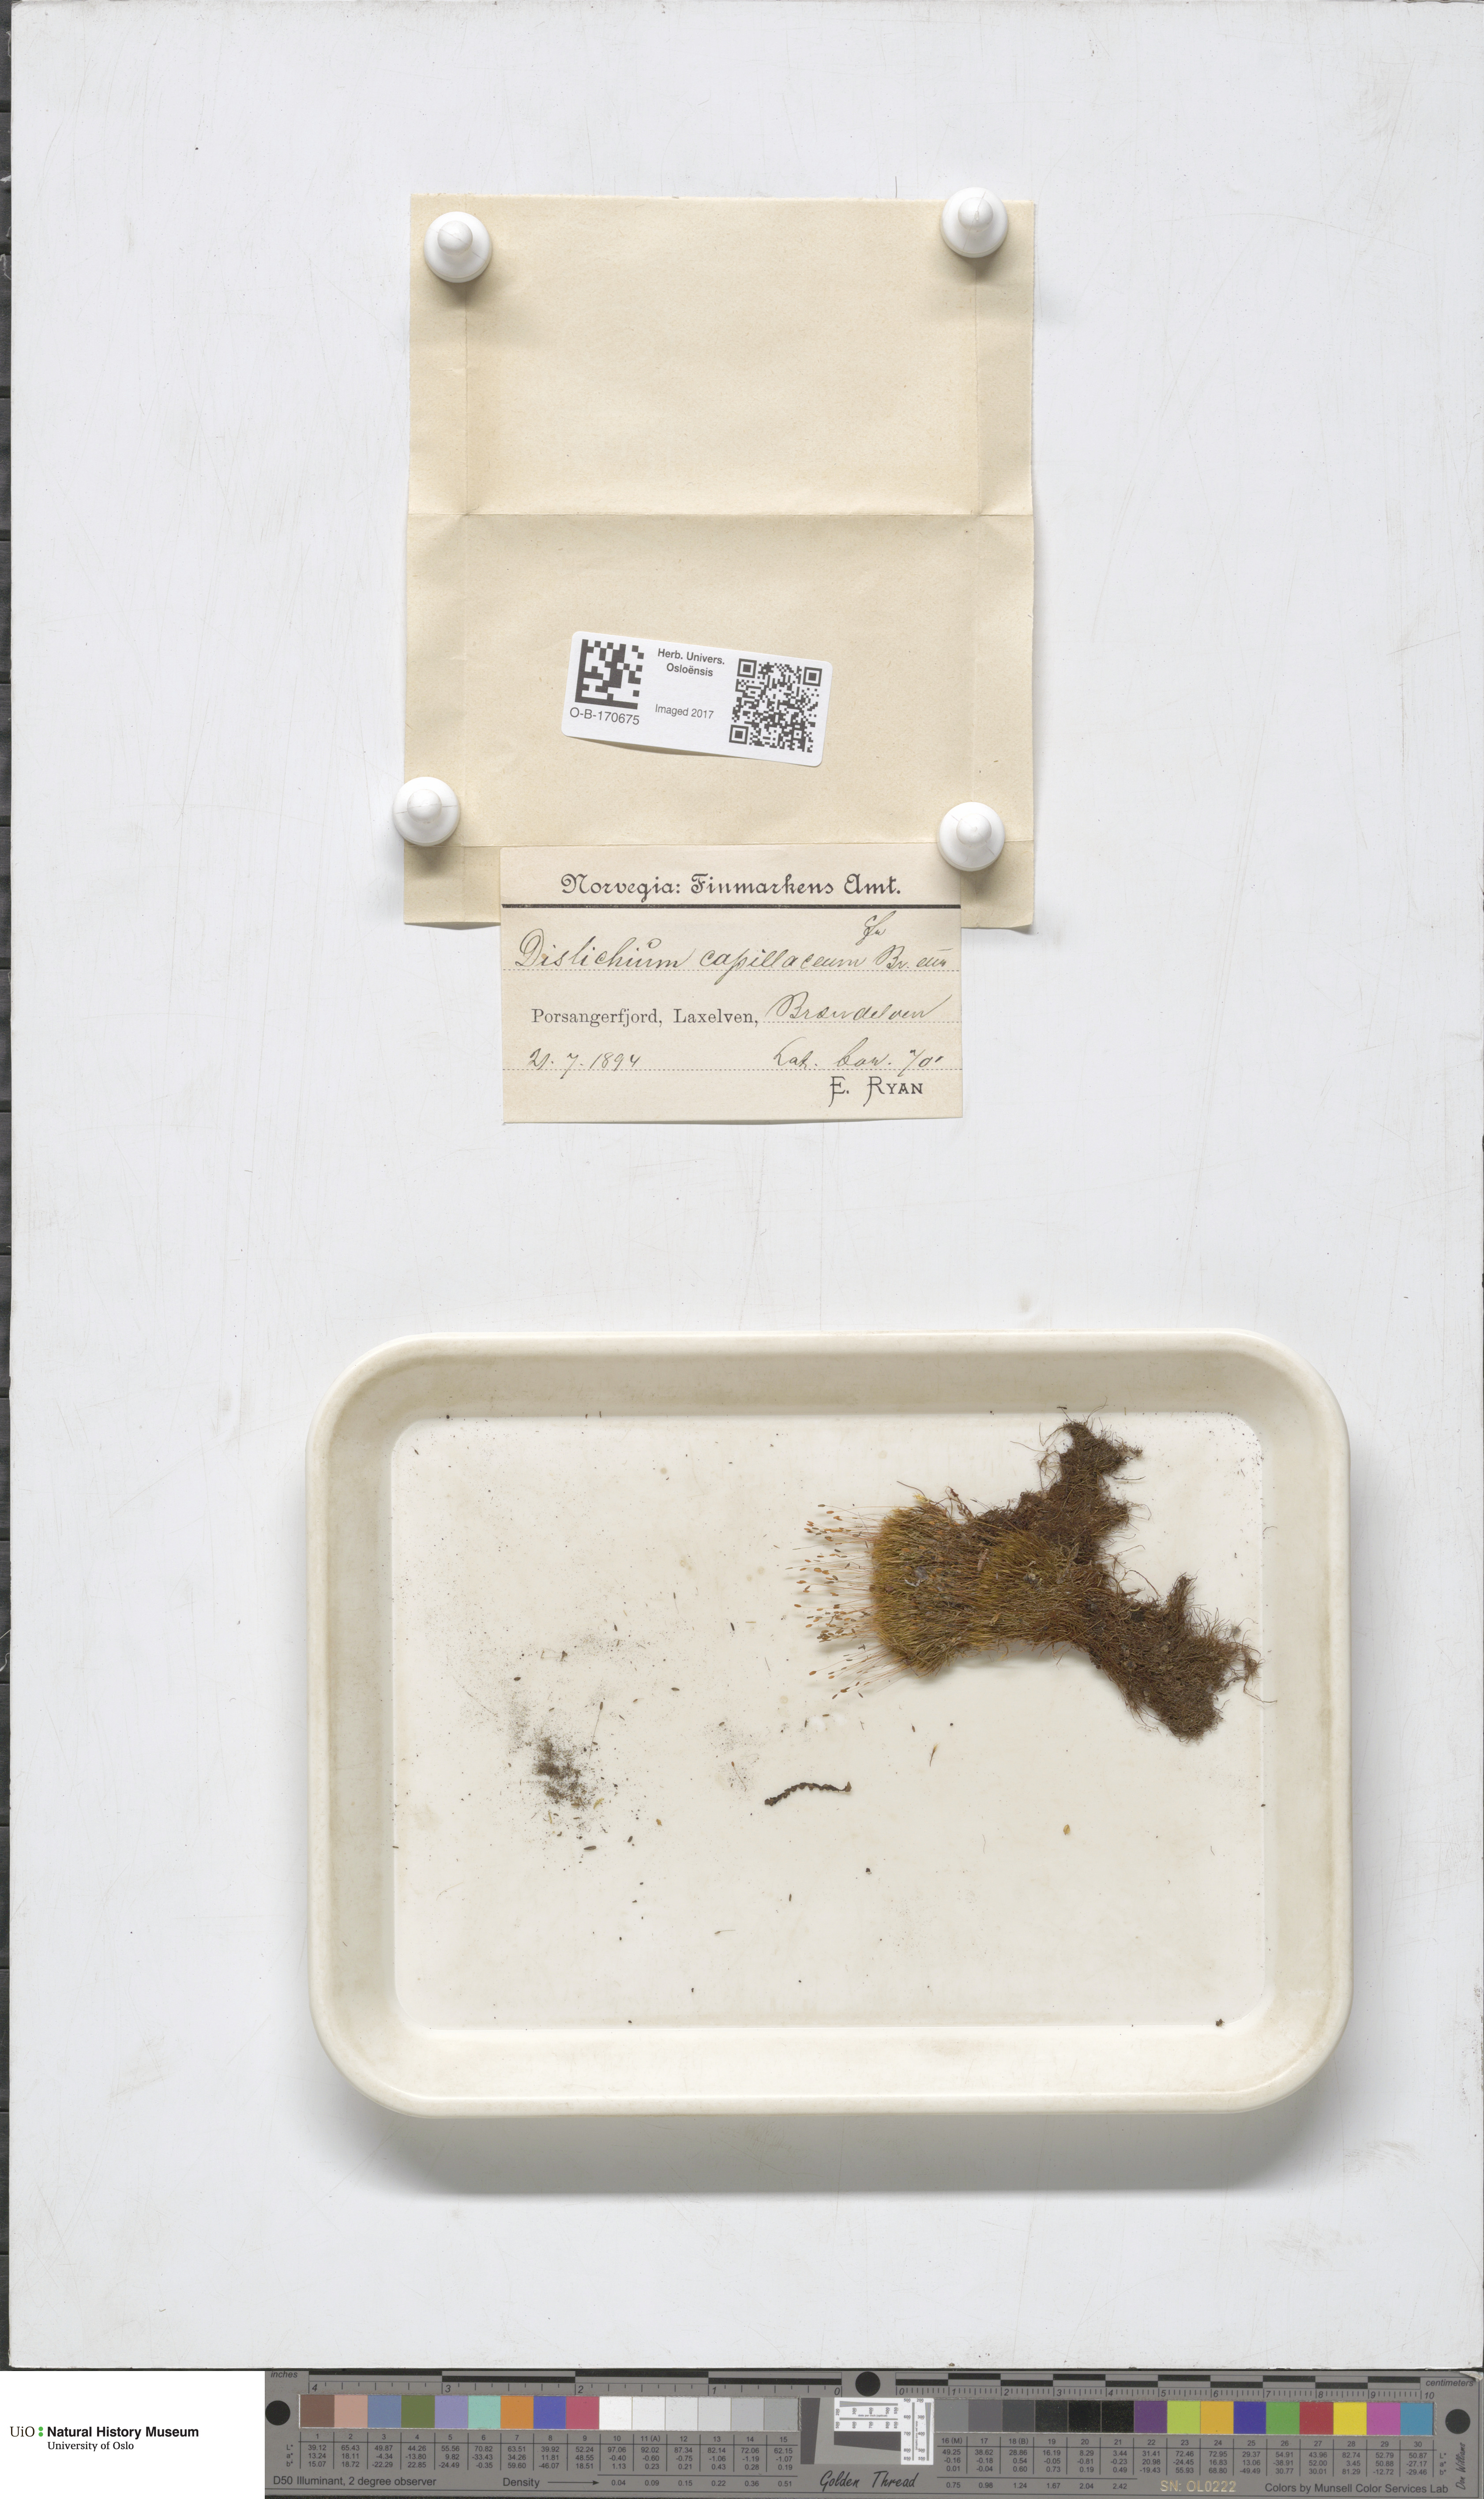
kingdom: Plantae
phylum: Bryophyta
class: Bryopsida
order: Scouleriales
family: Distichiaceae
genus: Distichium
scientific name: Distichium capillaceum
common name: Erect-fruited iris moss
